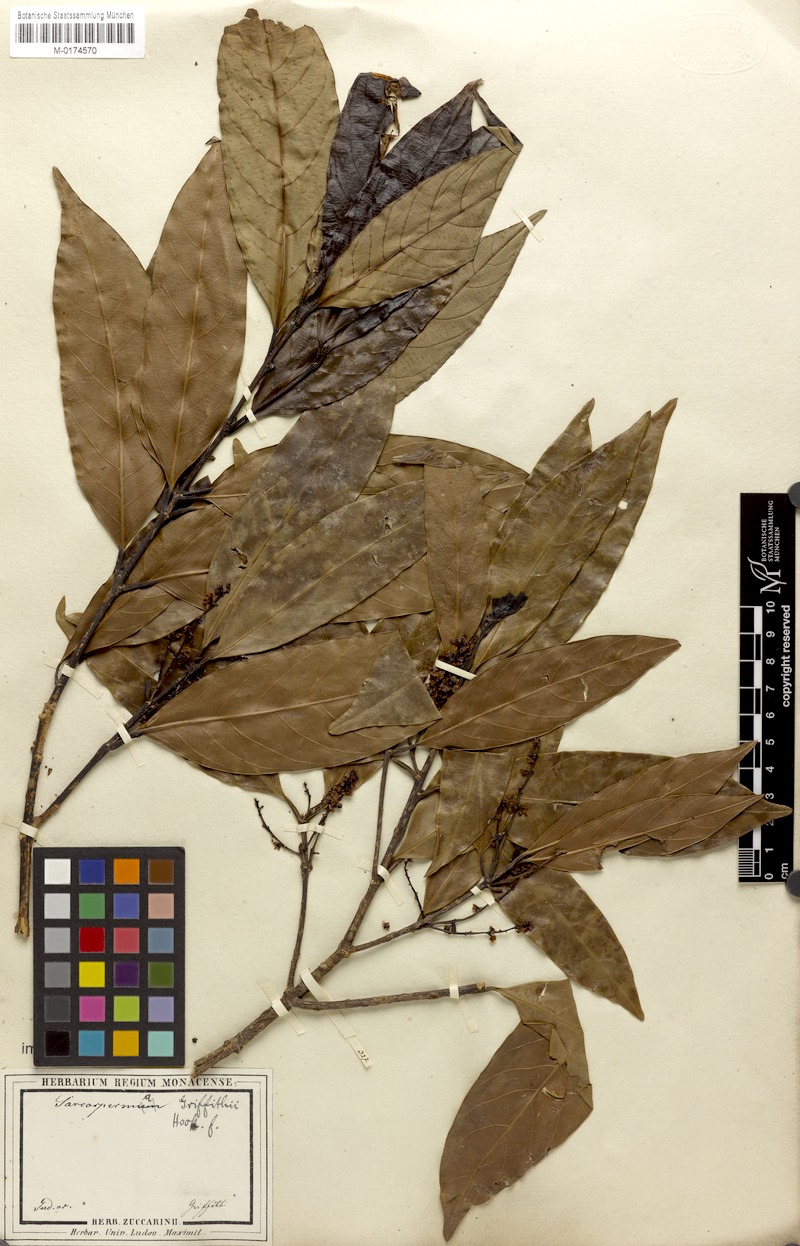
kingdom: Plantae
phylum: Tracheophyta
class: Magnoliopsida
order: Ericales
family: Sapotaceae
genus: Sarcosperma
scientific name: Sarcosperma griffithii
